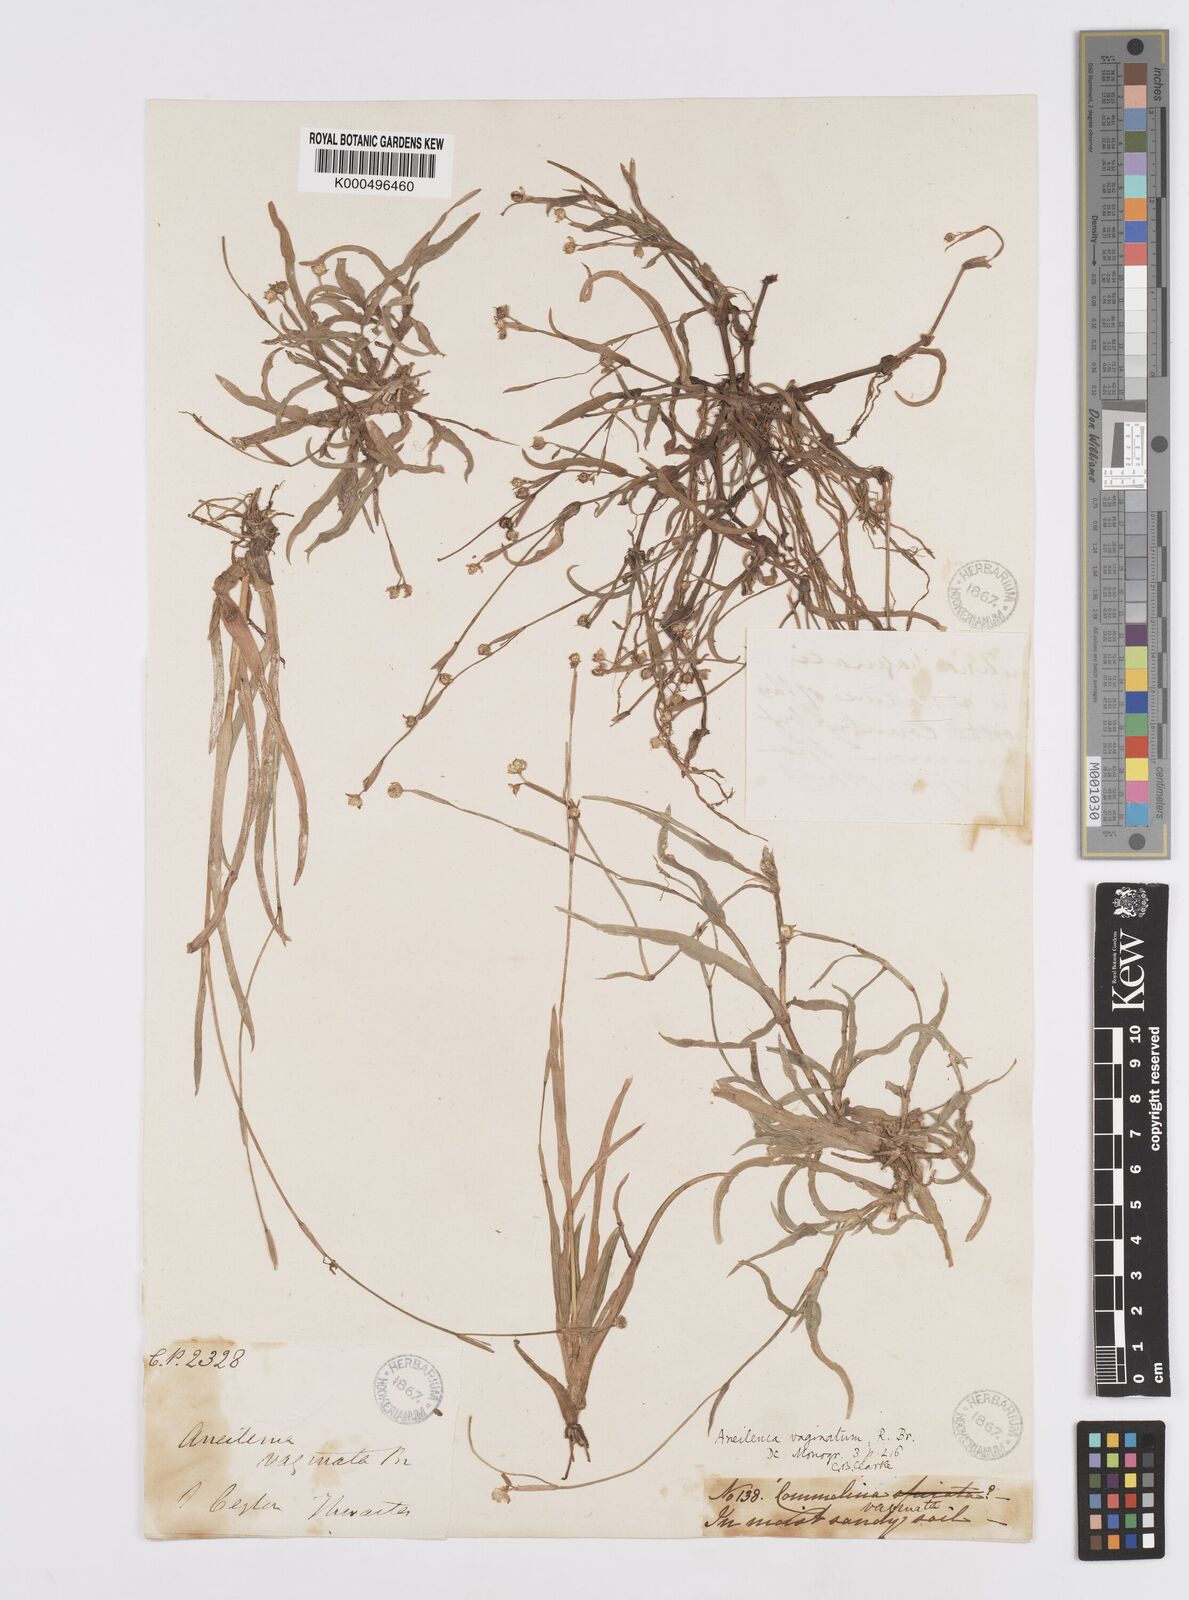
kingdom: Plantae
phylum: Tracheophyta
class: Liliopsida
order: Commelinales
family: Commelinaceae
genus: Murdannia
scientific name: Murdannia
